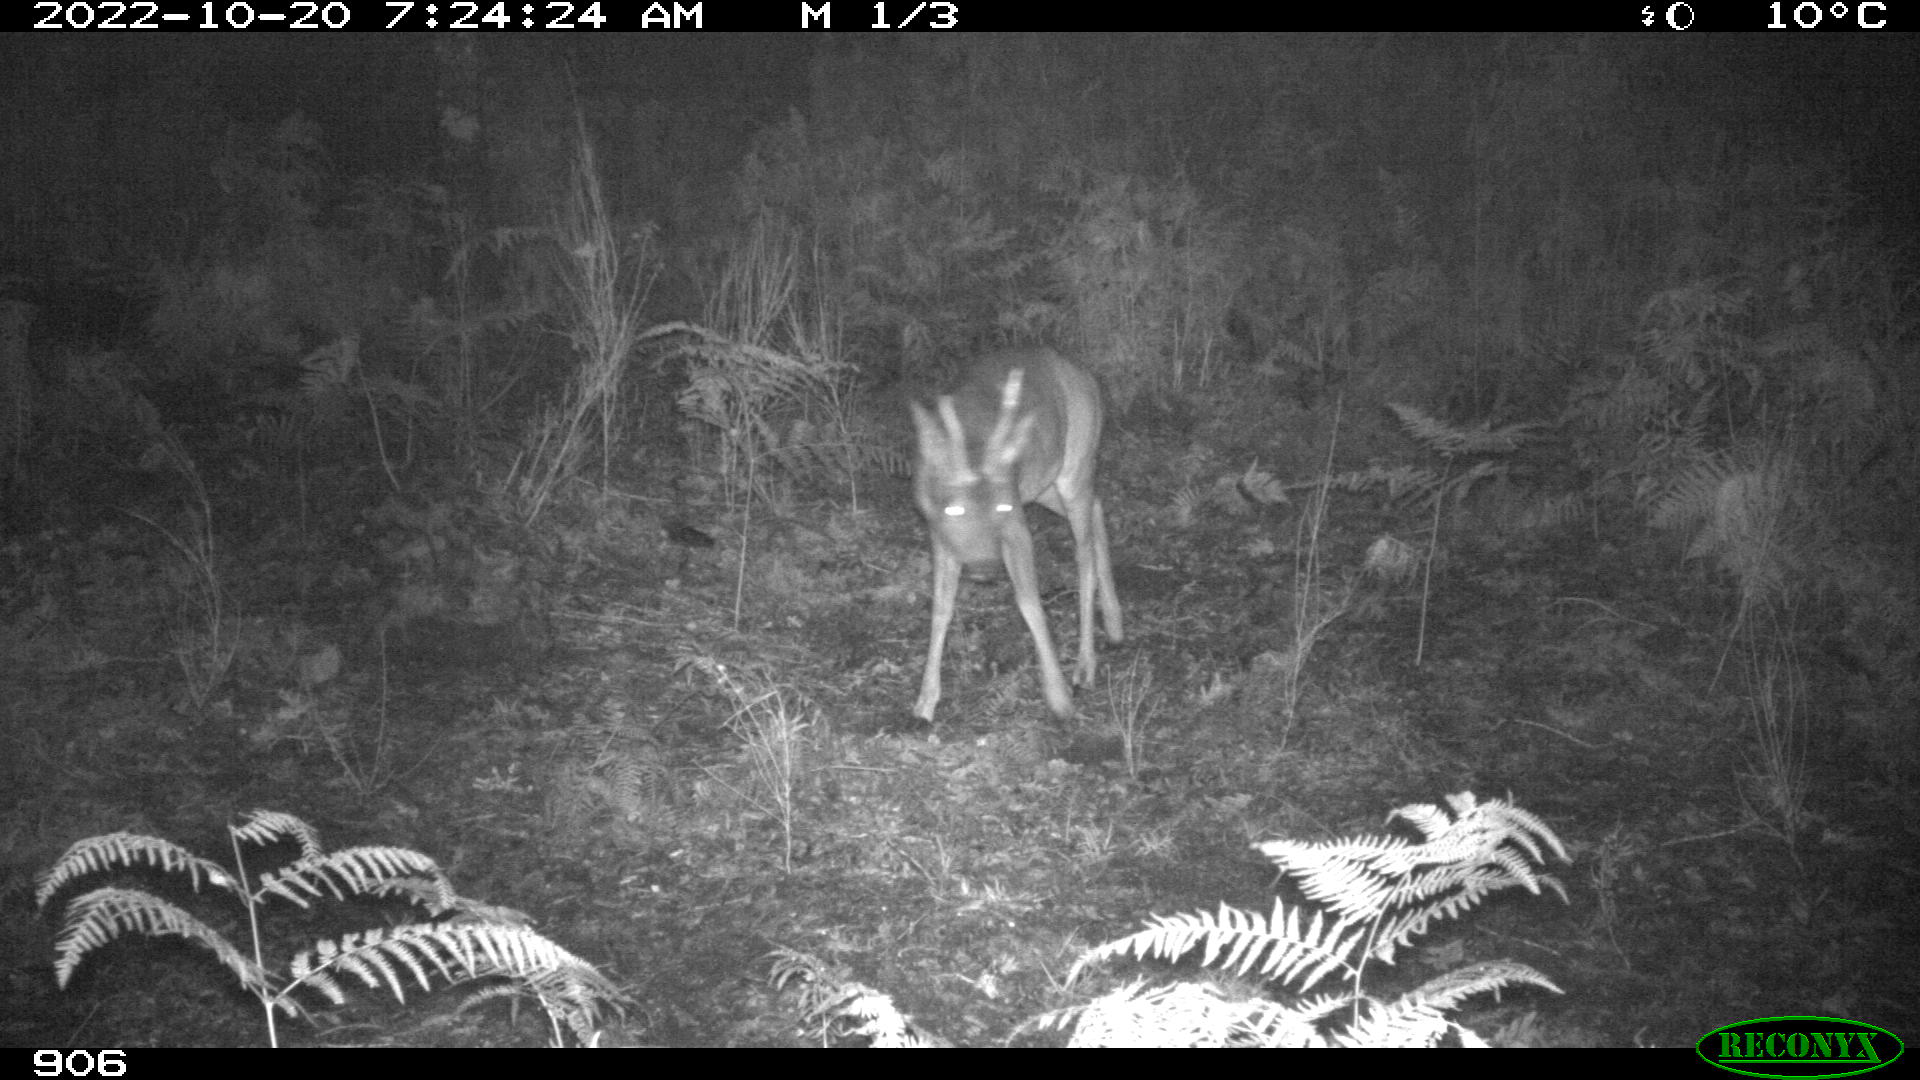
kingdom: Animalia
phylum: Chordata
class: Mammalia
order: Artiodactyla
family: Cervidae
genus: Capreolus
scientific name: Capreolus capreolus
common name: Western roe deer
